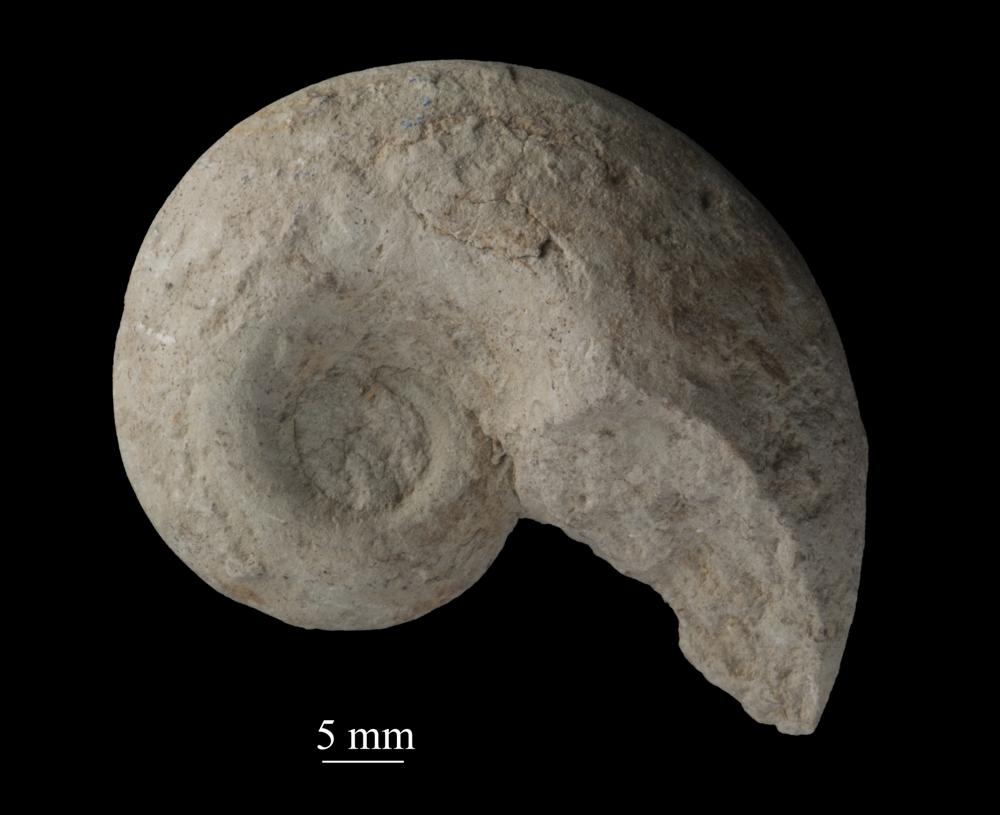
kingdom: Animalia
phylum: Mollusca
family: Macluritidae
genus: Maclurites
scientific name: Maclurites Maclurea neritoides
